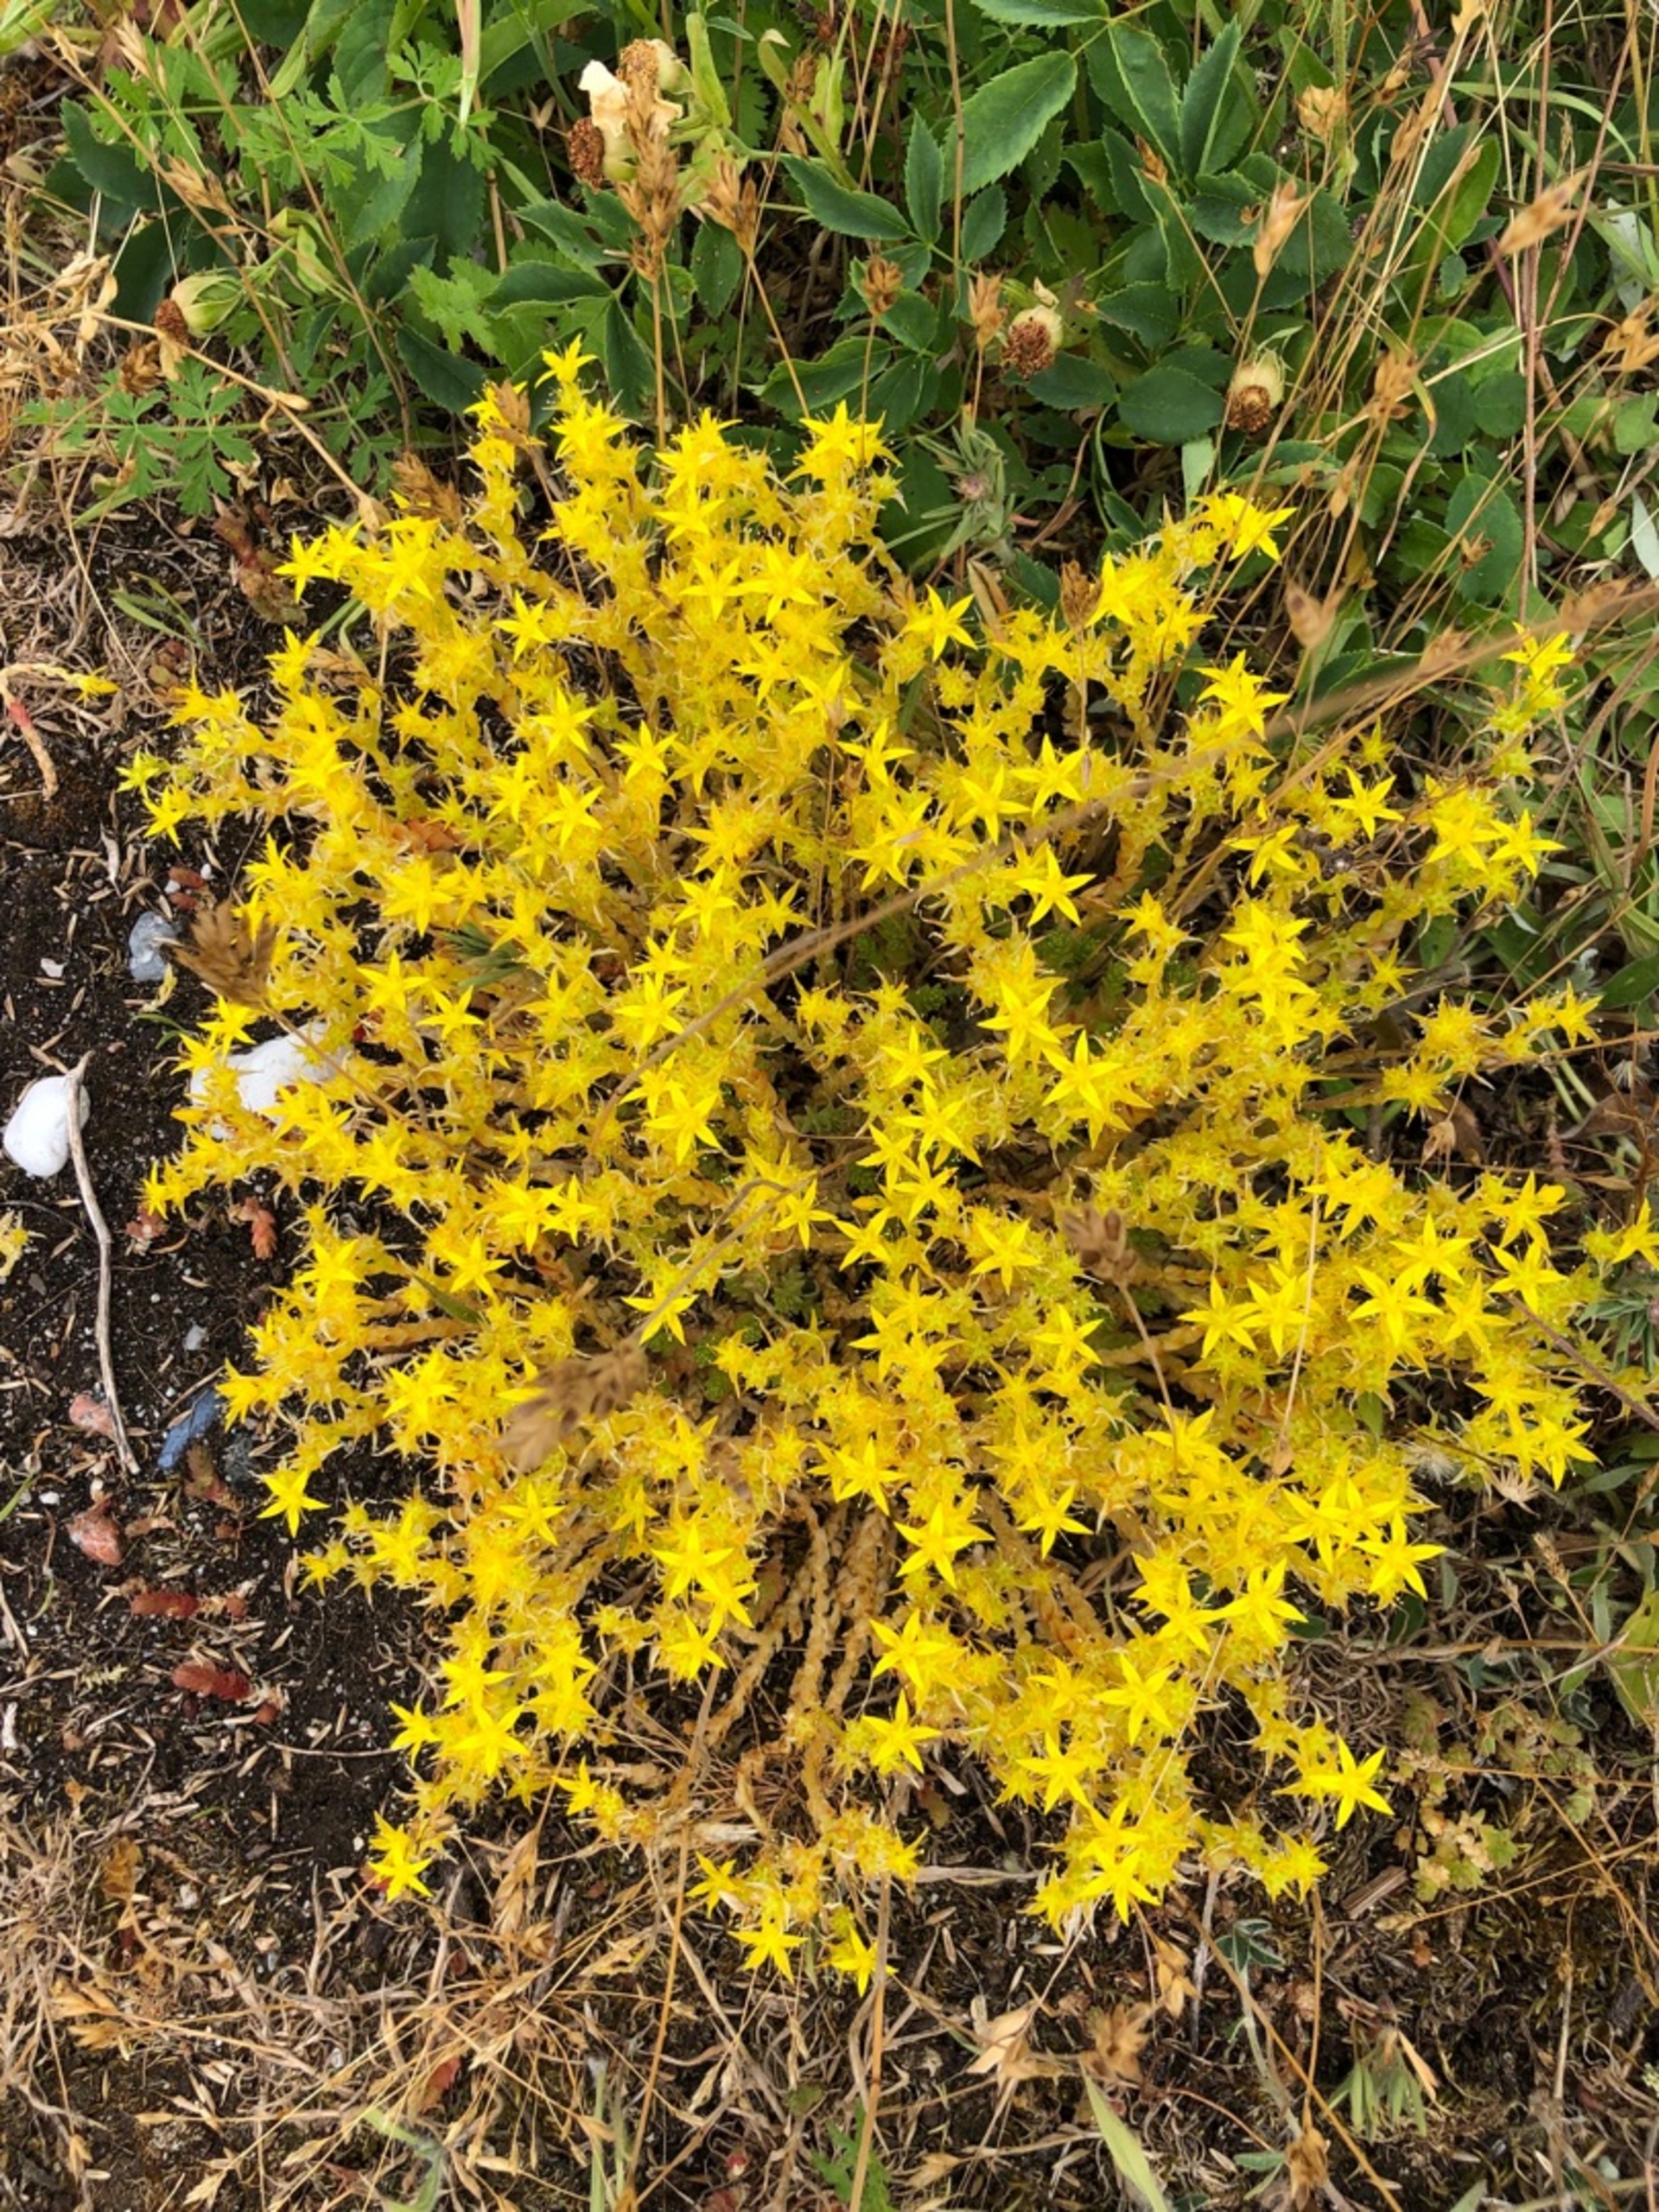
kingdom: Plantae
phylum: Tracheophyta
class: Magnoliopsida
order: Saxifragales
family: Crassulaceae
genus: Sedum
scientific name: Sedum acre
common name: Bidende stenurt
